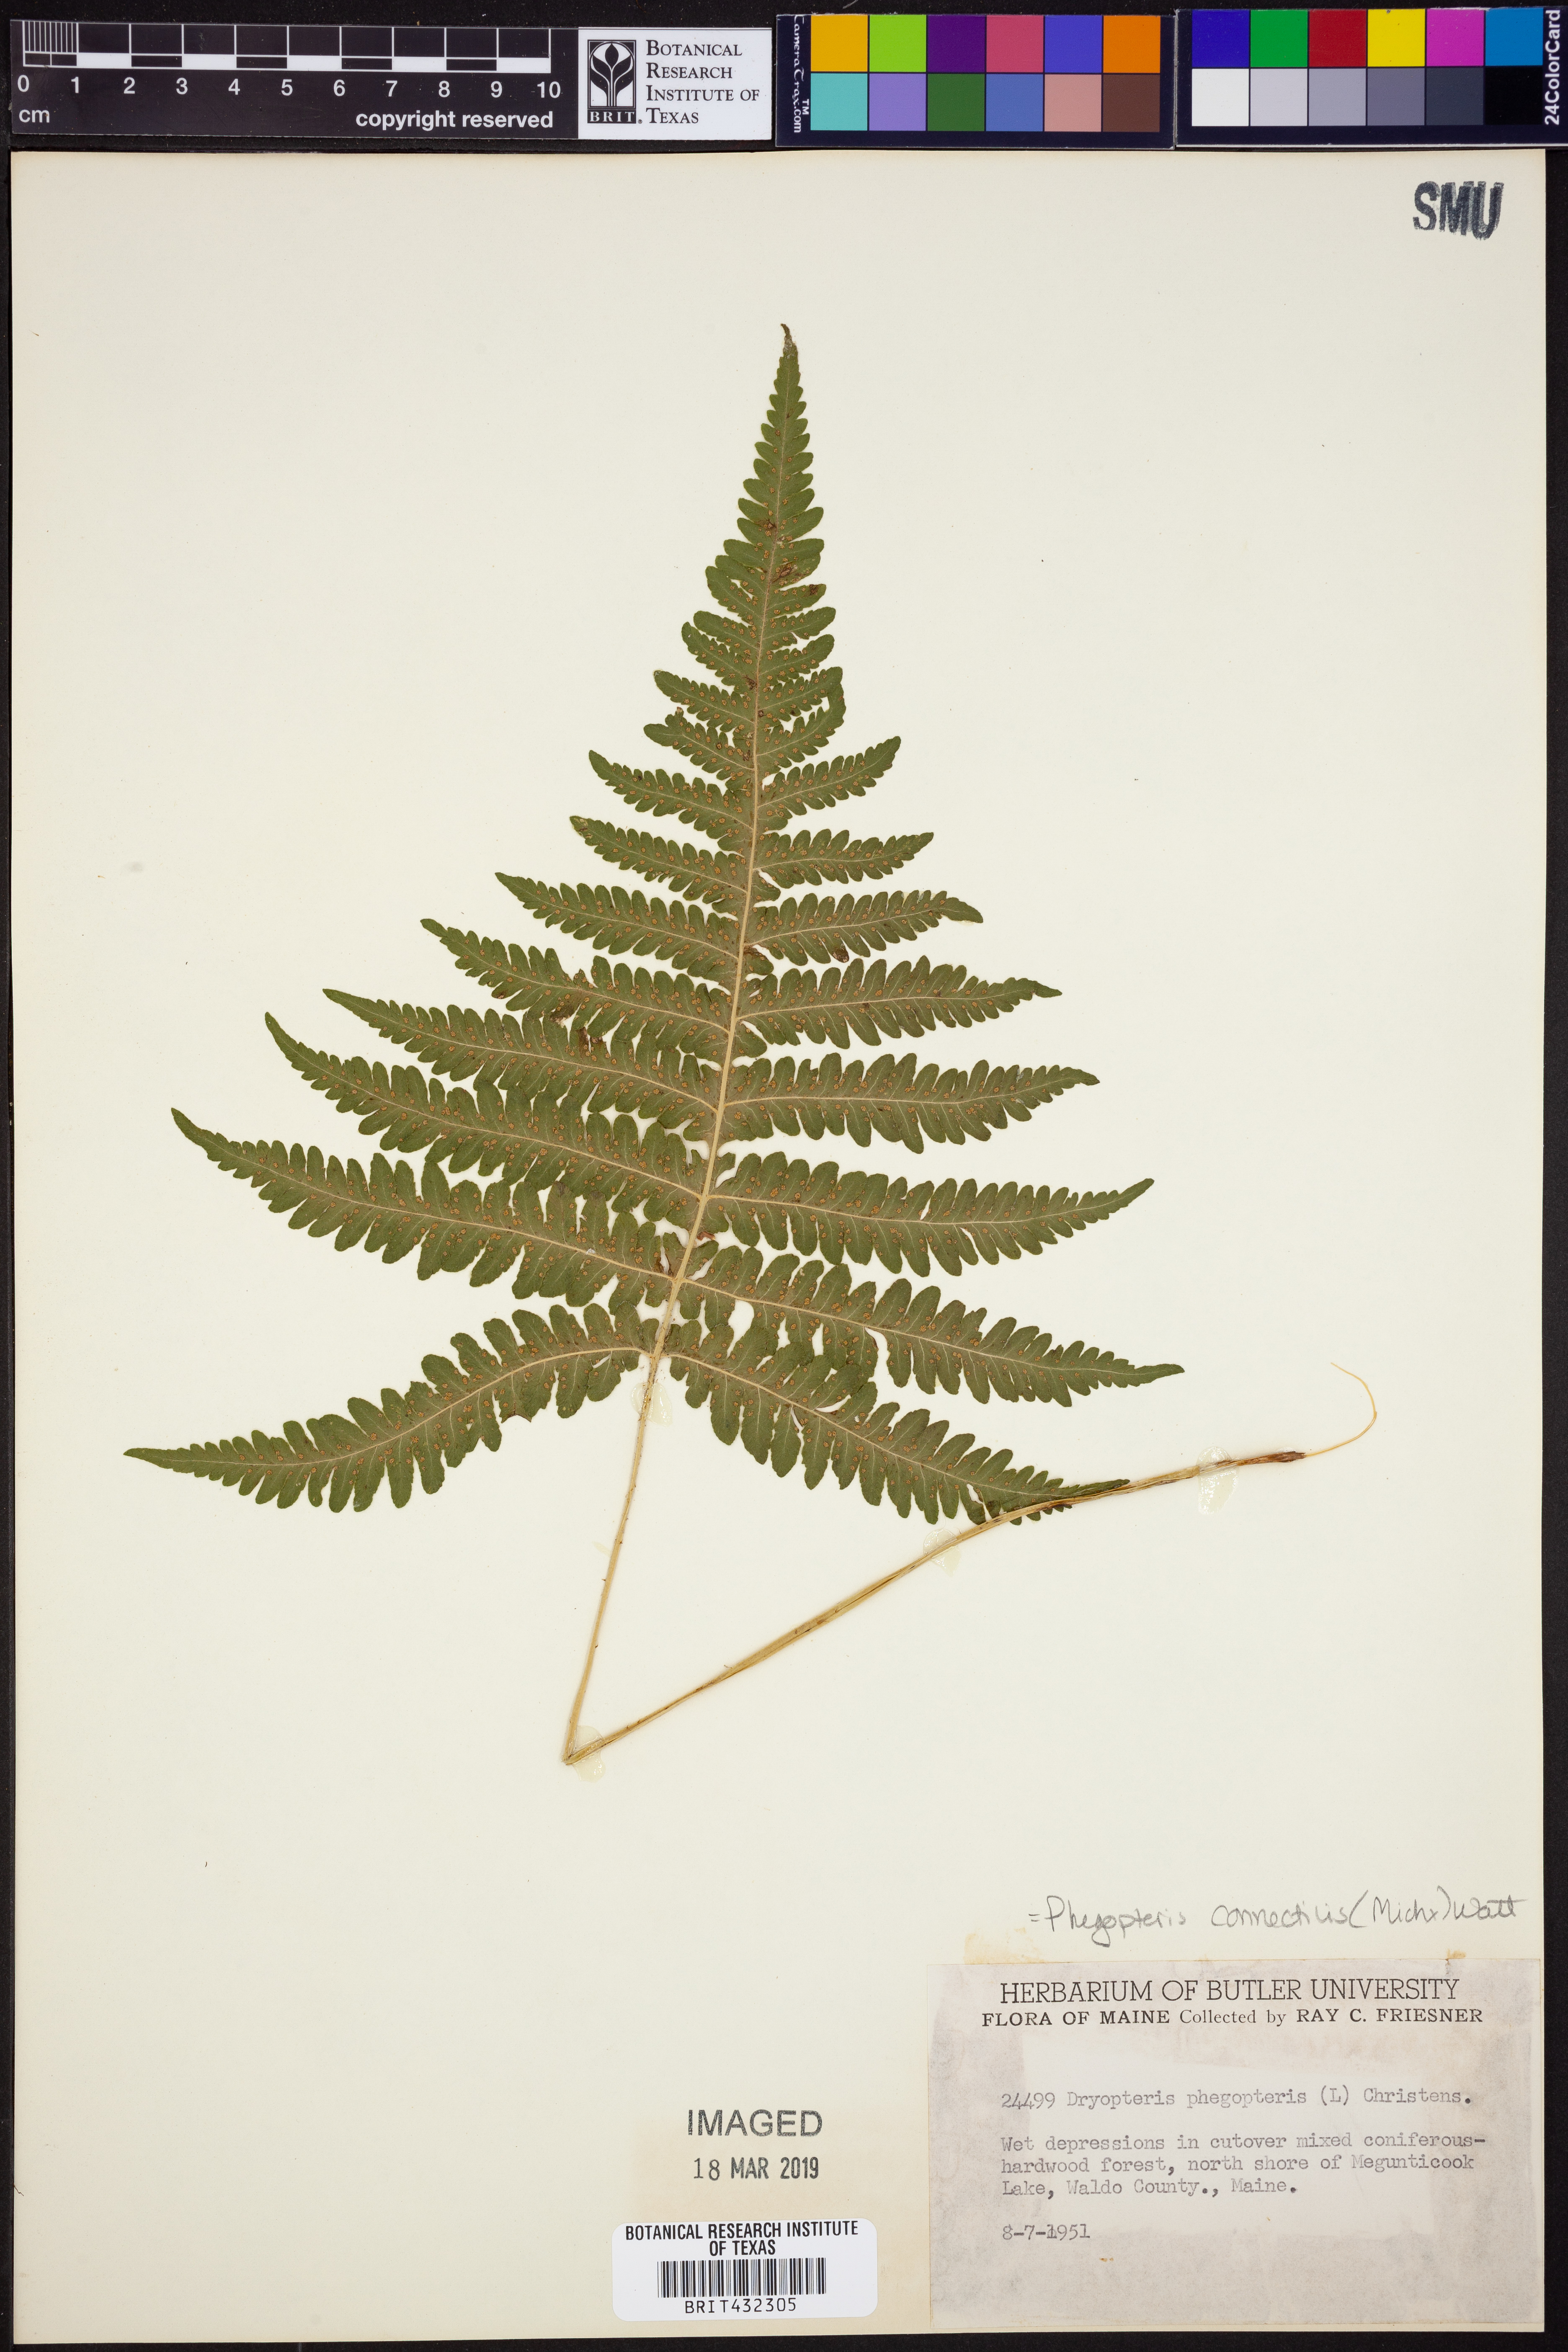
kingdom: Plantae
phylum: Tracheophyta
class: Polypodiopsida
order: Polypodiales
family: Thelypteridaceae
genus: Phegopteris
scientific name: Phegopteris connectilis
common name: Beech fern
